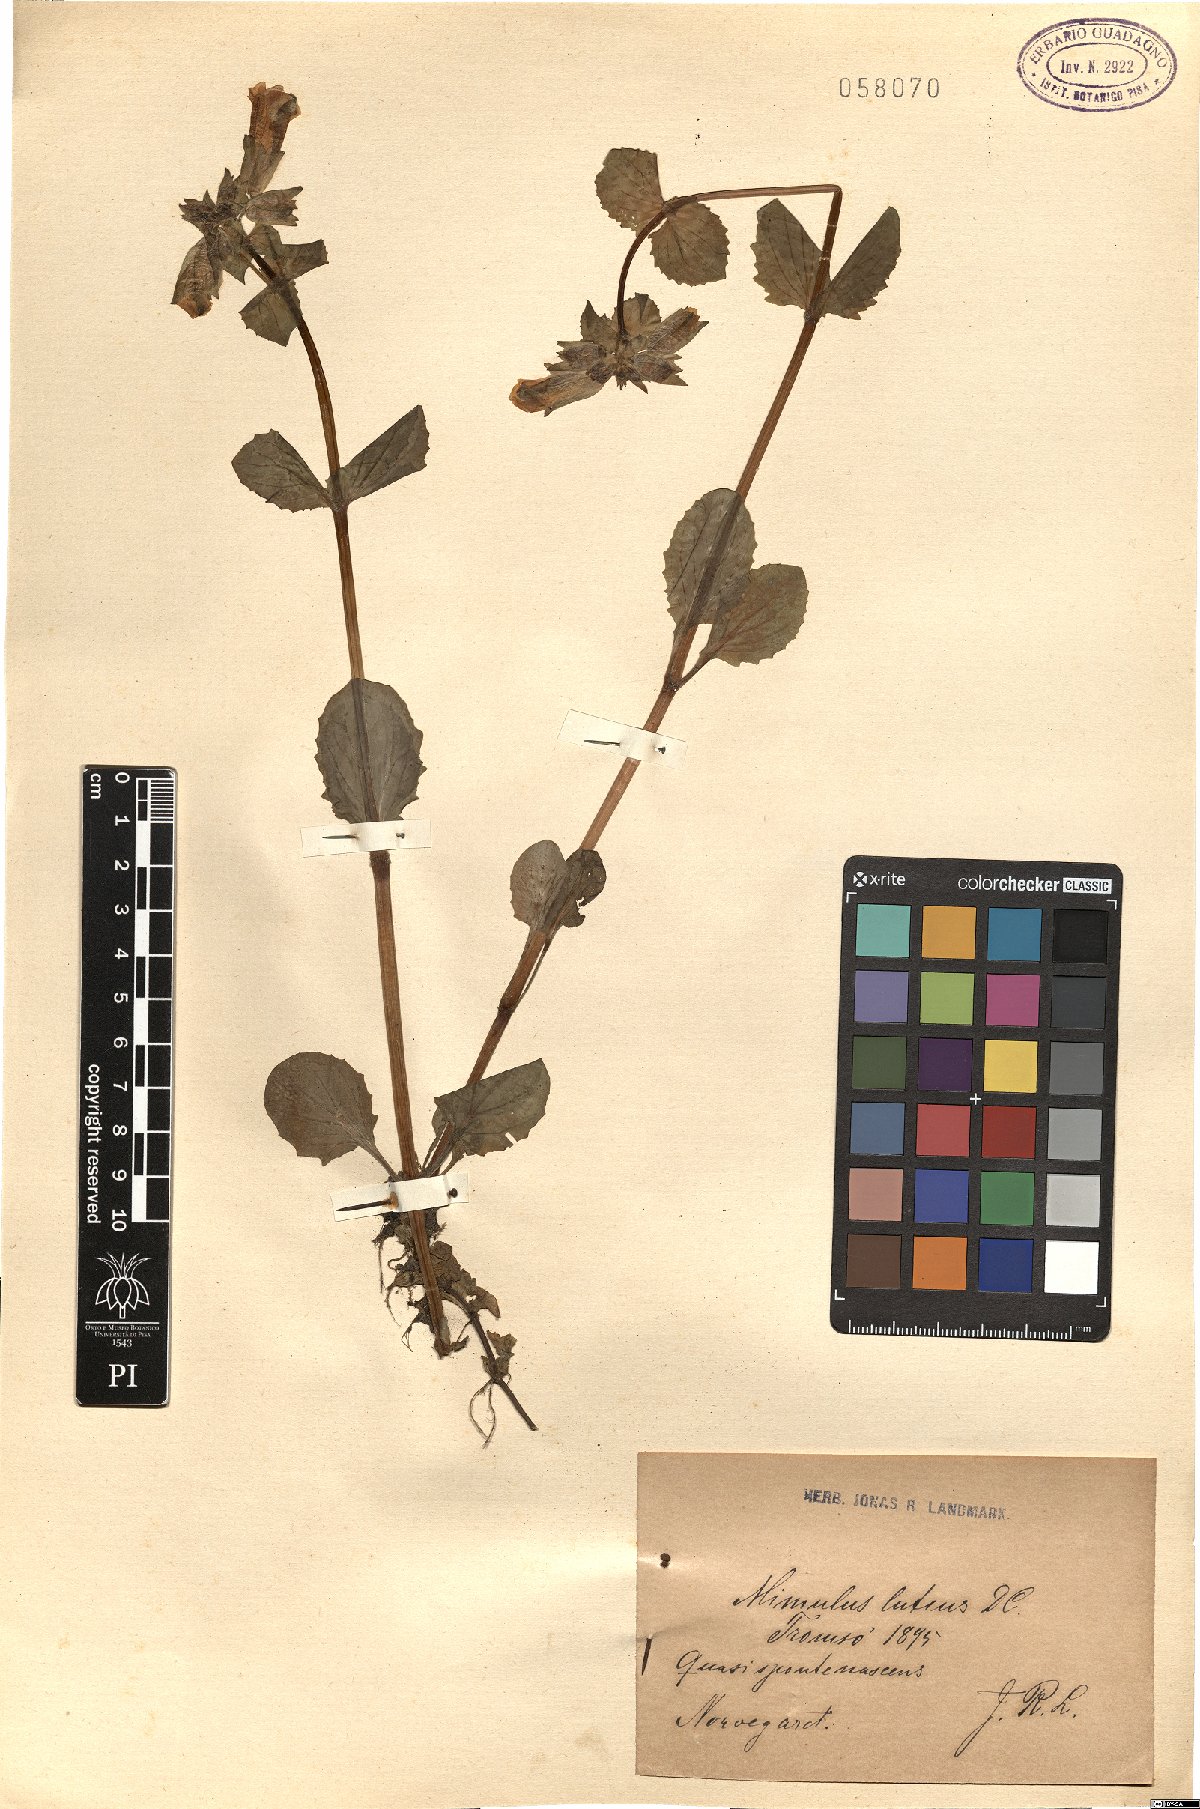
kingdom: Plantae
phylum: Tracheophyta
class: Magnoliopsida
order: Lamiales
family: Phrymaceae
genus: Erythranthe
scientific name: Erythranthe lutea
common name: Yellow monkey-flower
